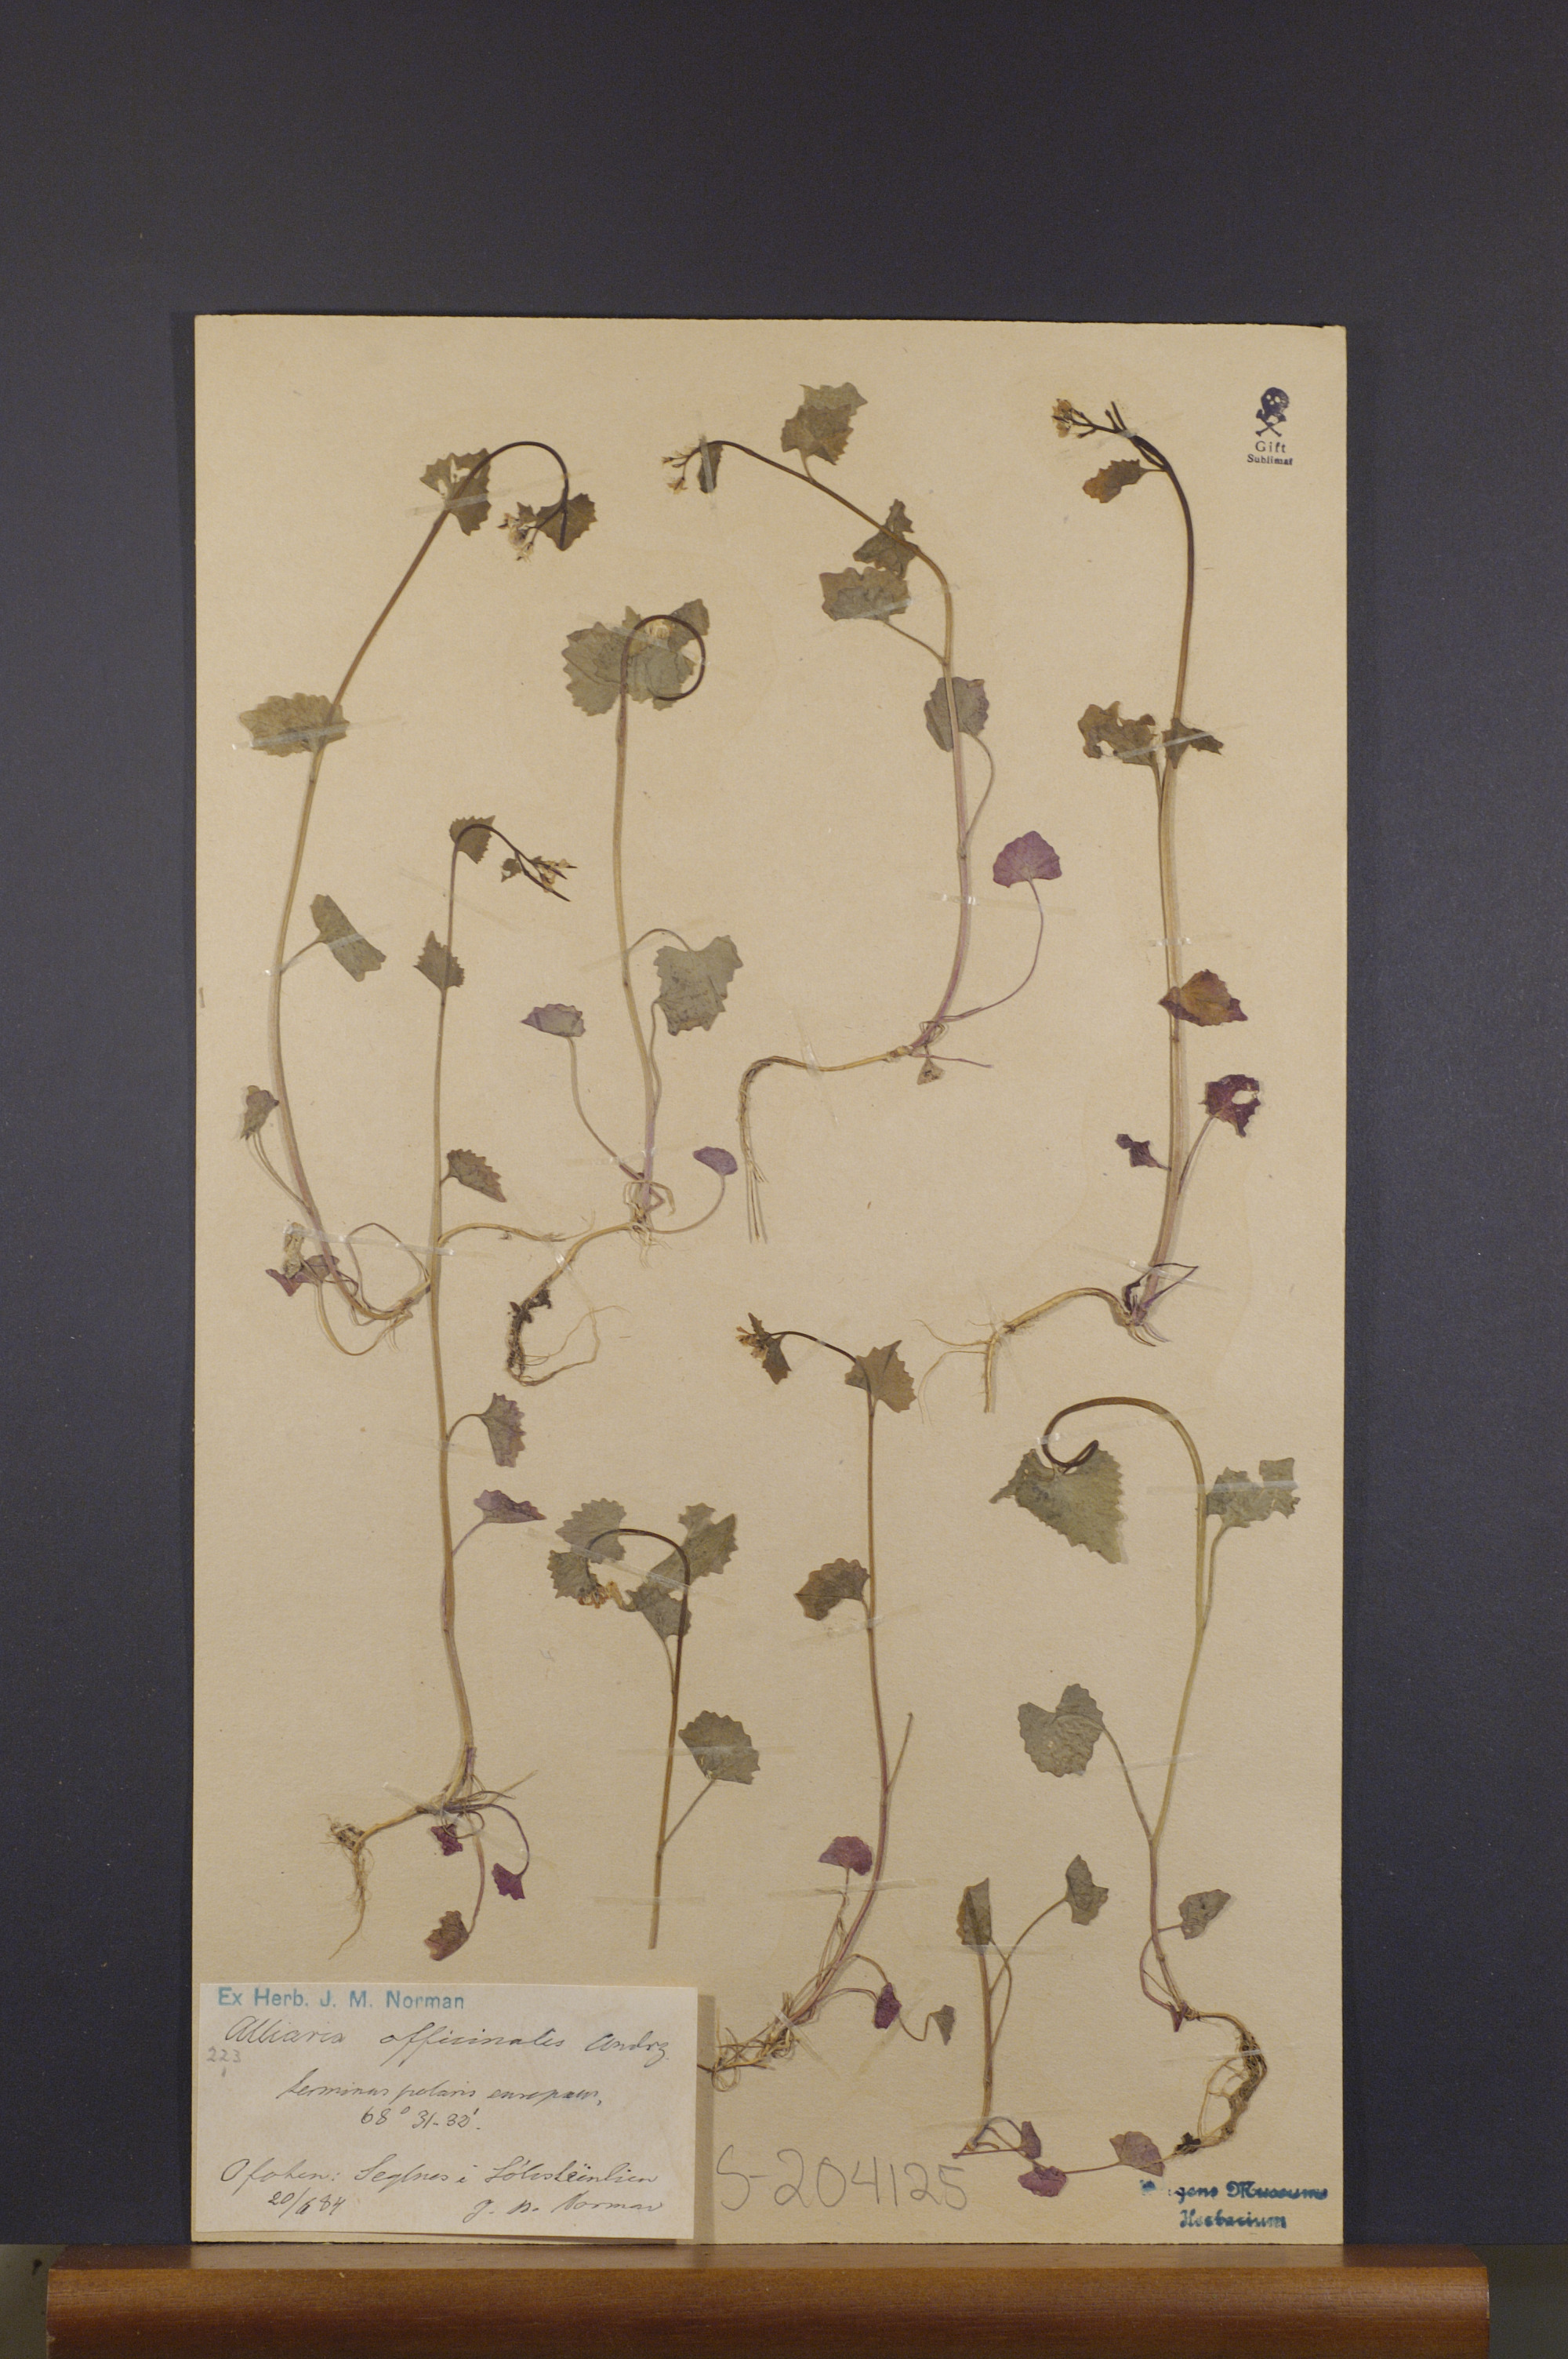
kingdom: Plantae
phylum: Tracheophyta
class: Magnoliopsida
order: Brassicales
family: Brassicaceae
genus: Alliaria
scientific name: Alliaria petiolata
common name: Garlic mustard
